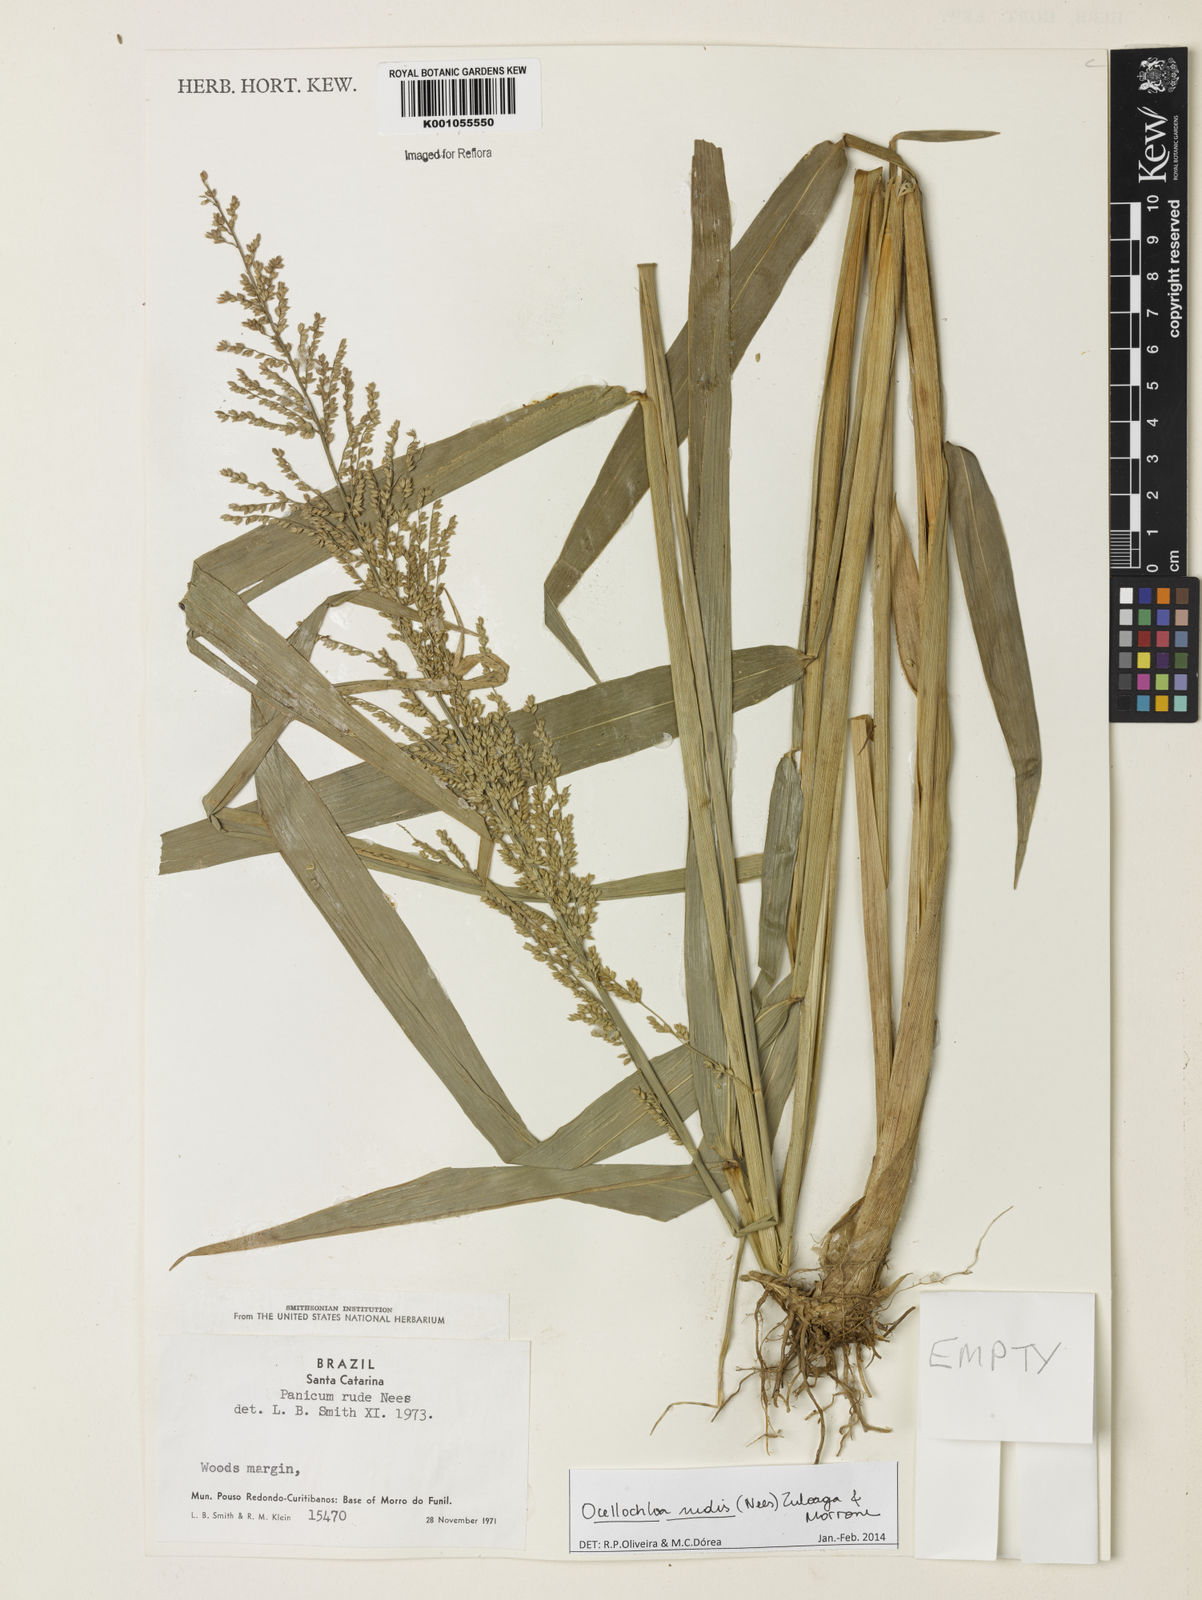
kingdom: Plantae
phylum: Tracheophyta
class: Liliopsida
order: Poales
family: Poaceae
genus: Ocellochloa
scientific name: Ocellochloa rudis
